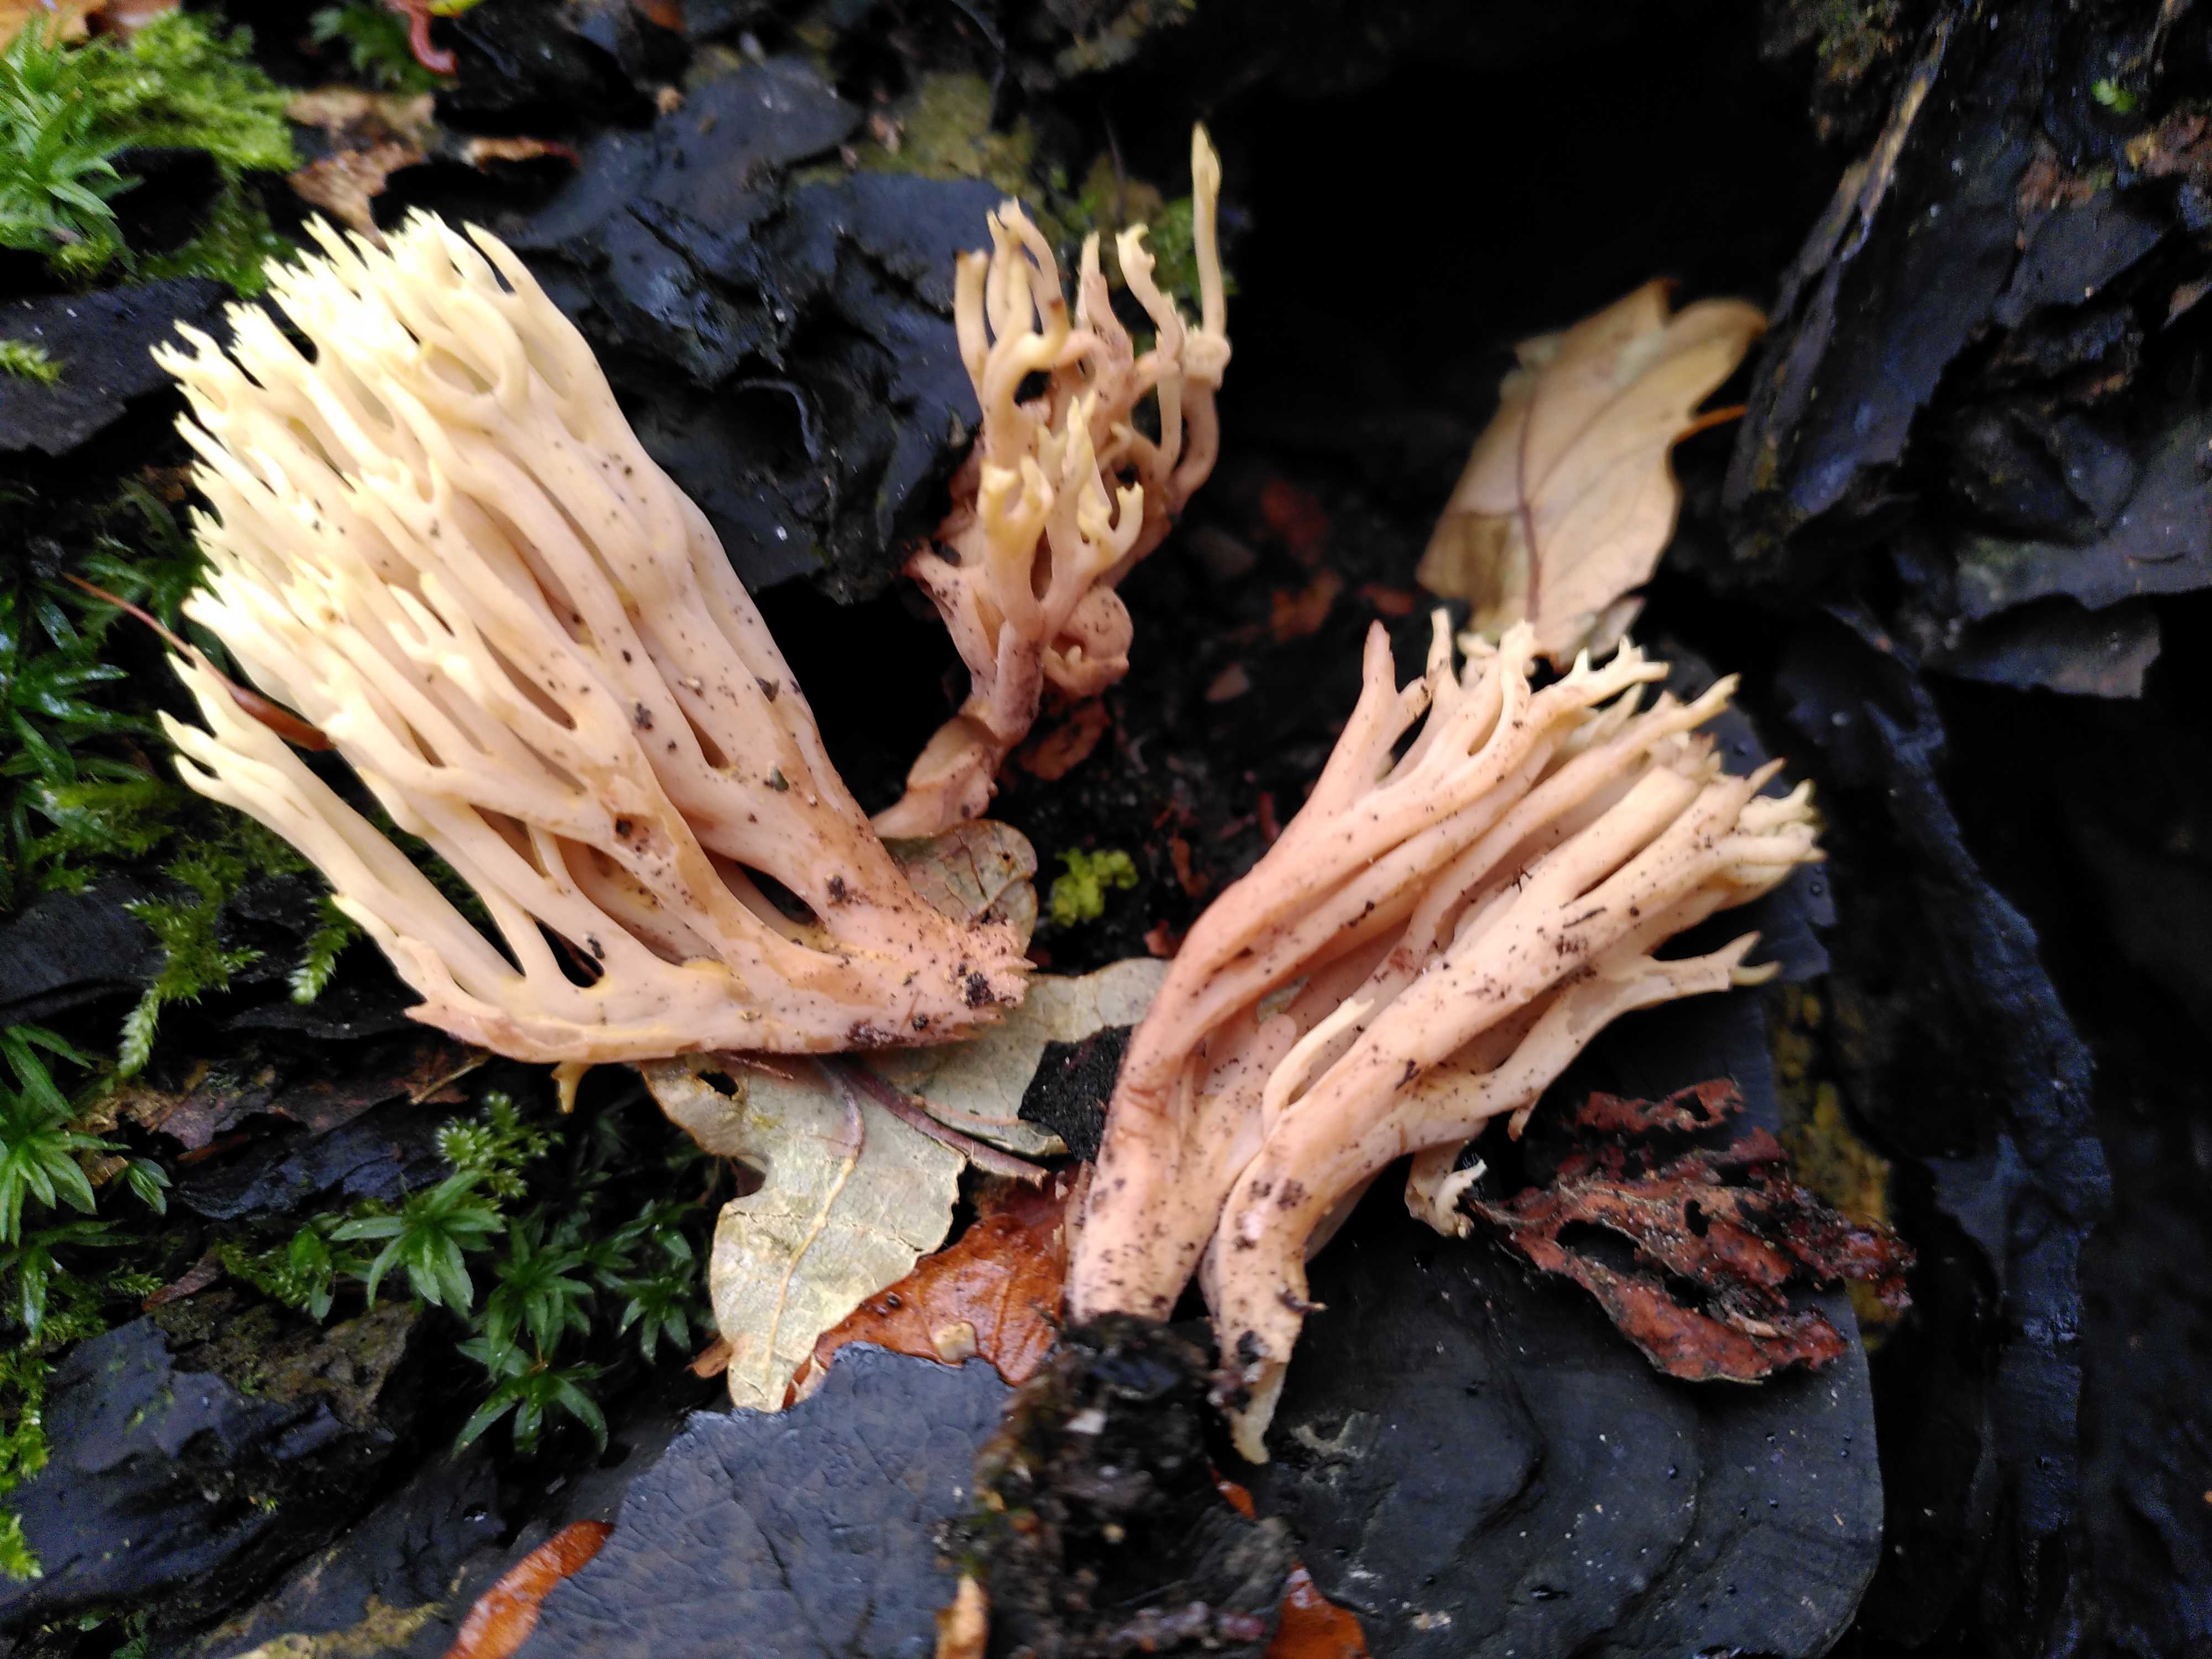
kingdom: Fungi
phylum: Basidiomycota
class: Agaricomycetes
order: Gomphales
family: Gomphaceae
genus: Ramaria
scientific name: Ramaria stricta
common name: rank koralsvamp
